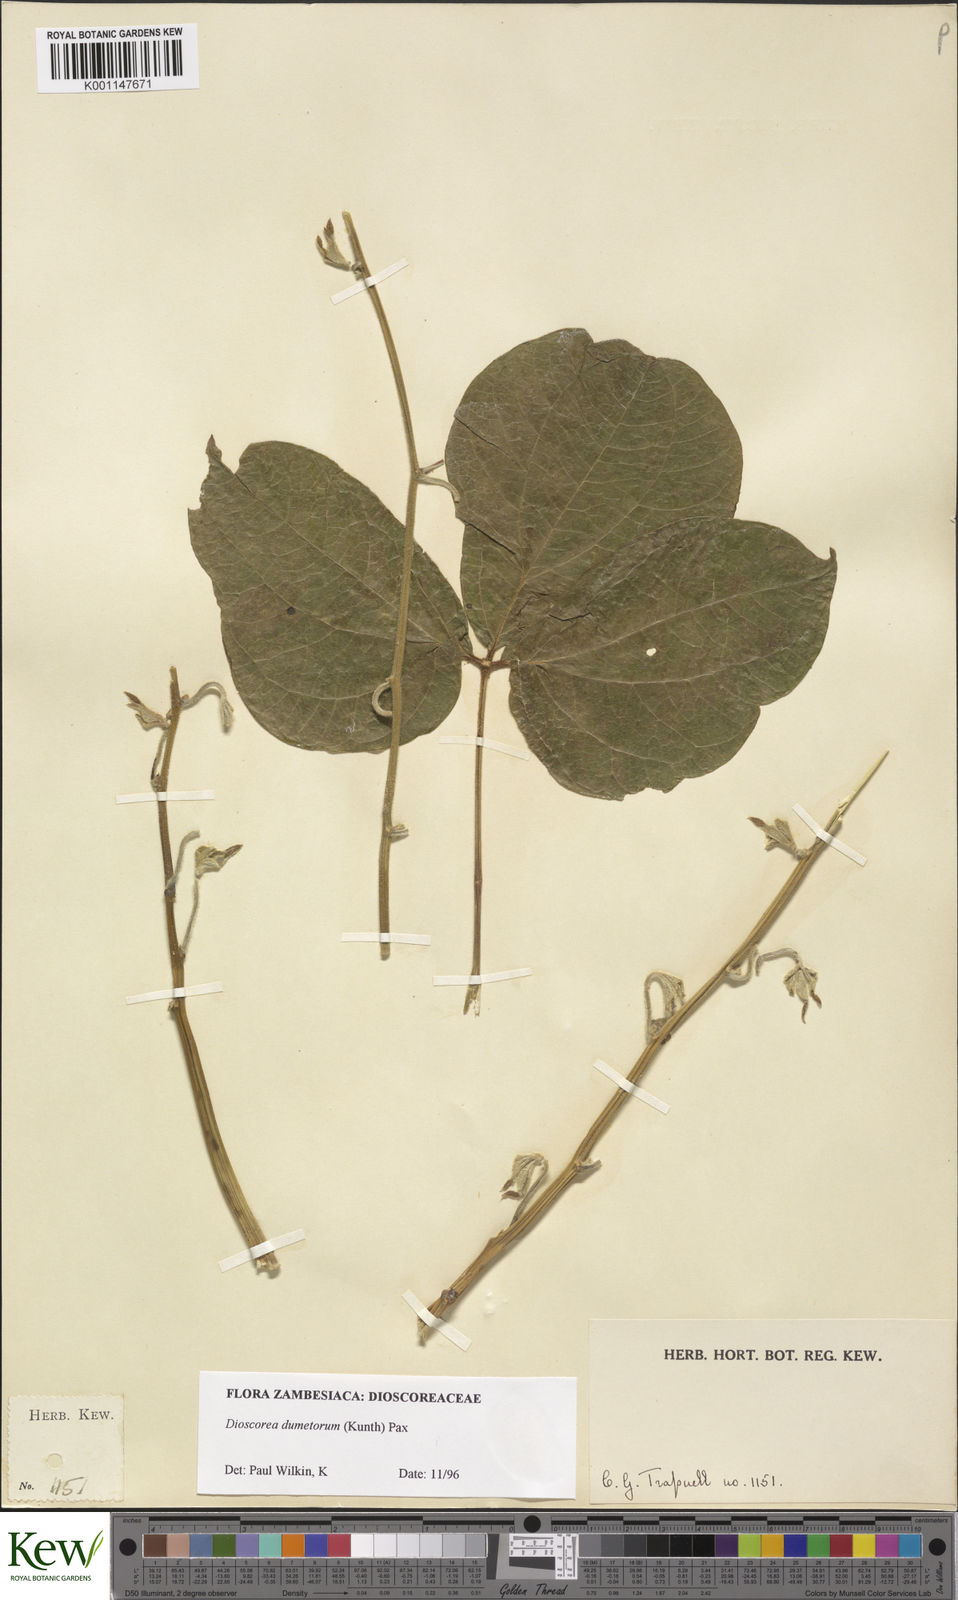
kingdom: Plantae
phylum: Tracheophyta
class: Liliopsida
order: Dioscoreales
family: Dioscoreaceae
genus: Dioscorea
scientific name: Dioscorea dumetorum
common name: African bitter yam
